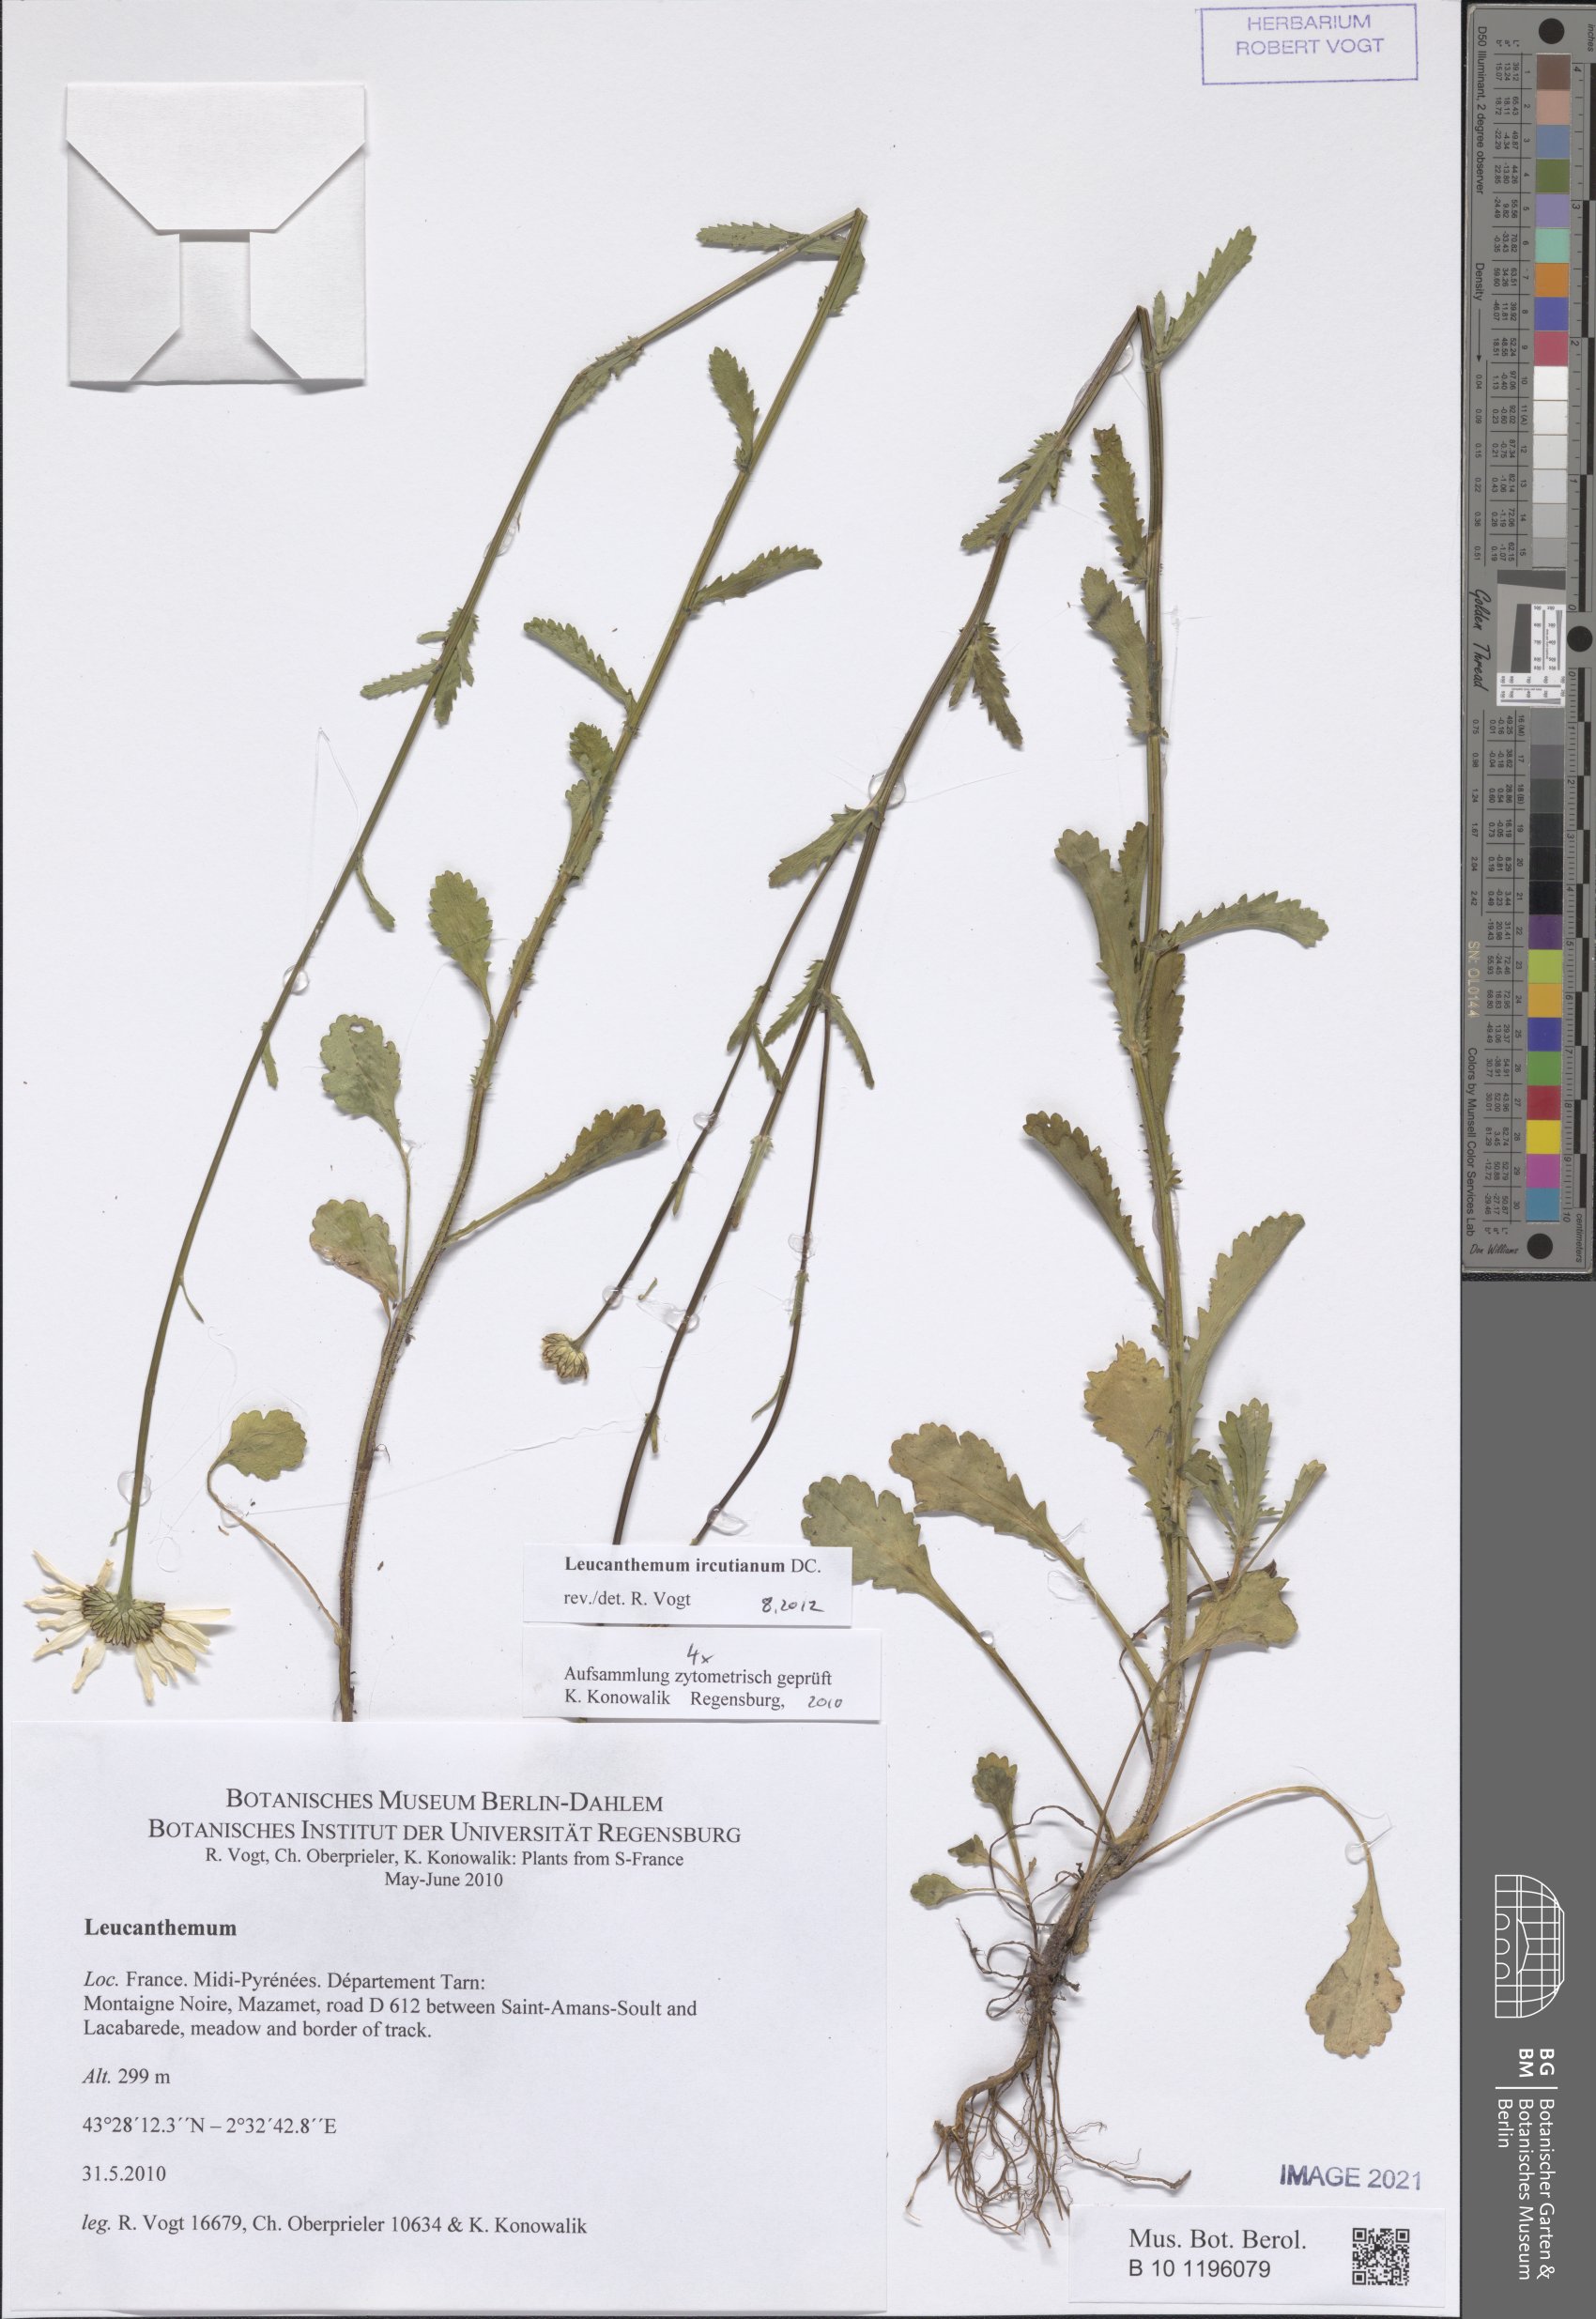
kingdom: Plantae
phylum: Tracheophyta
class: Magnoliopsida
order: Asterales
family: Asteraceae
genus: Leucanthemum
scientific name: Leucanthemum ircutianum
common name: Daisy
